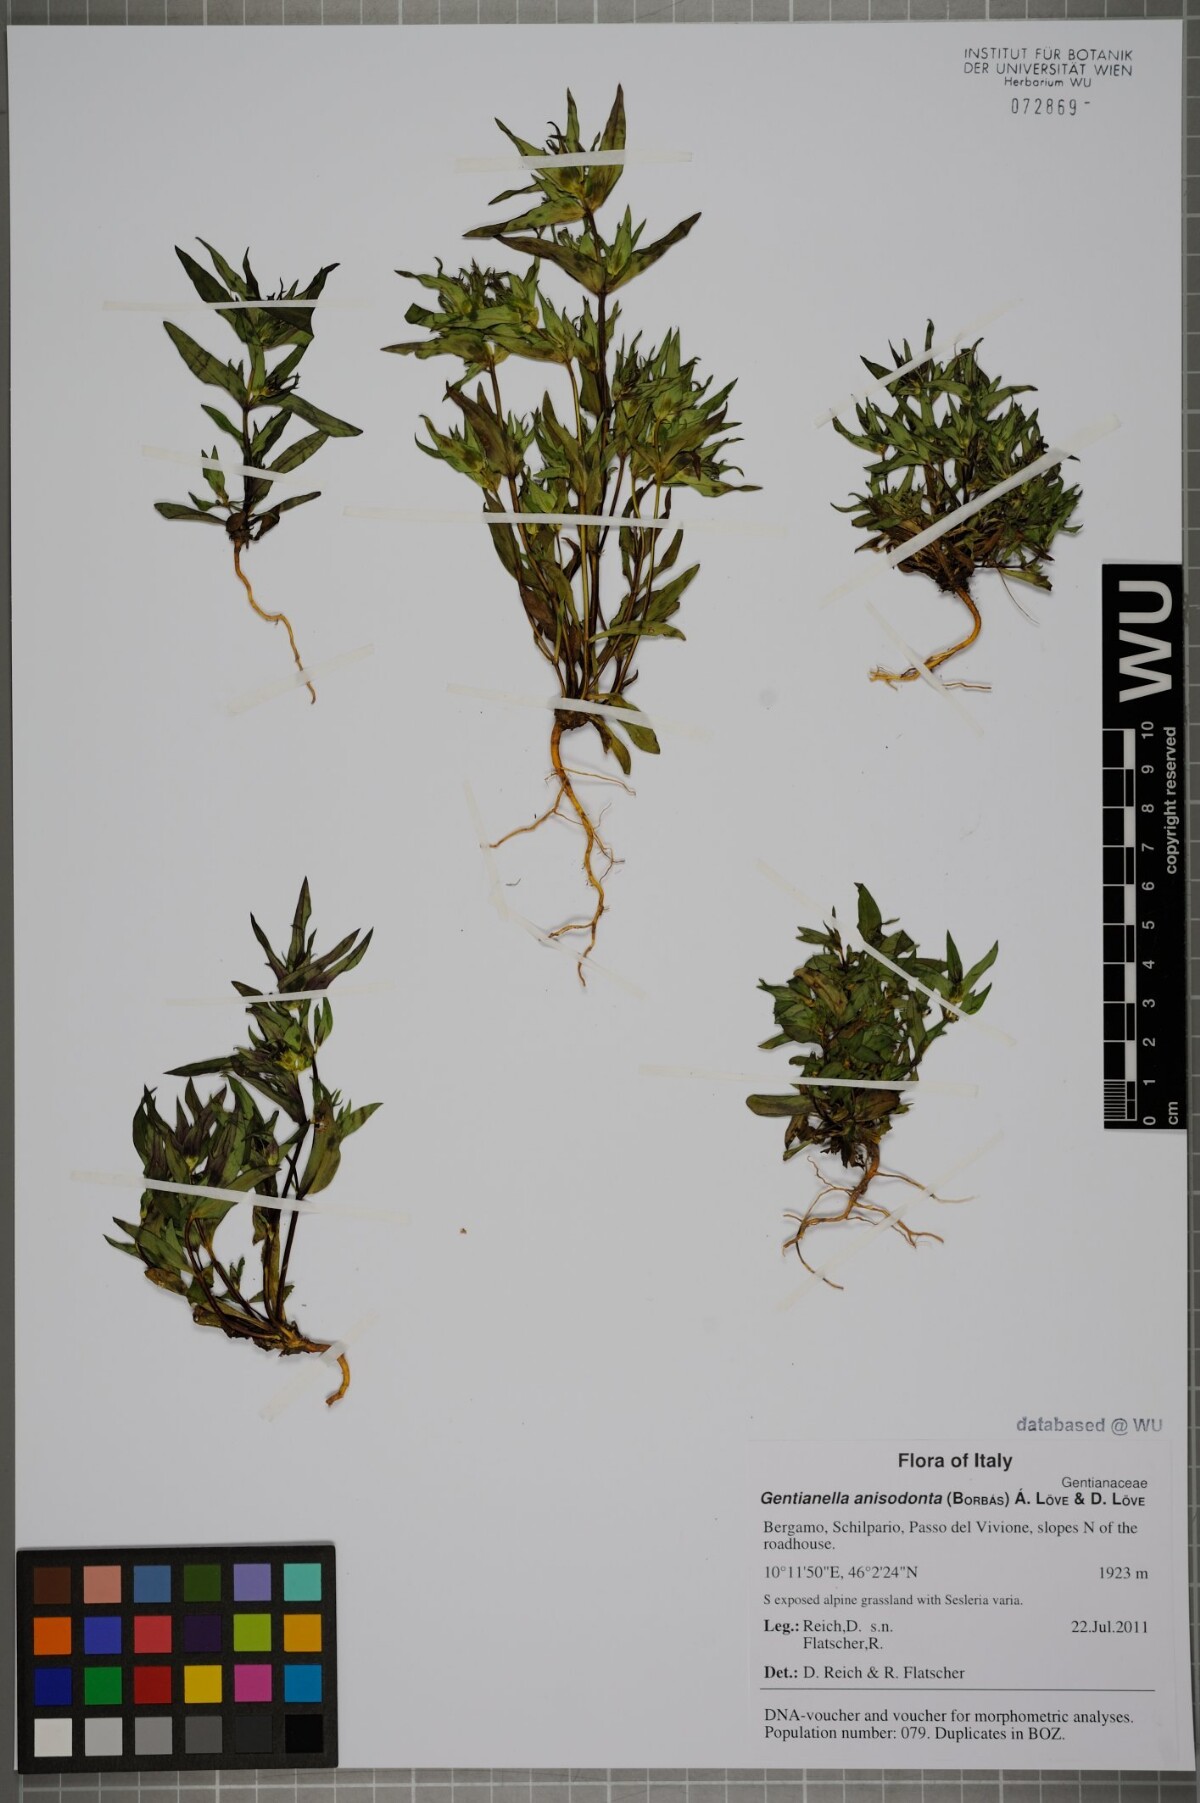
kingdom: Plantae
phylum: Tracheophyta
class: Magnoliopsida
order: Gentianales
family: Gentianaceae
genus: Gentianella
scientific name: Gentianella anisodonta
